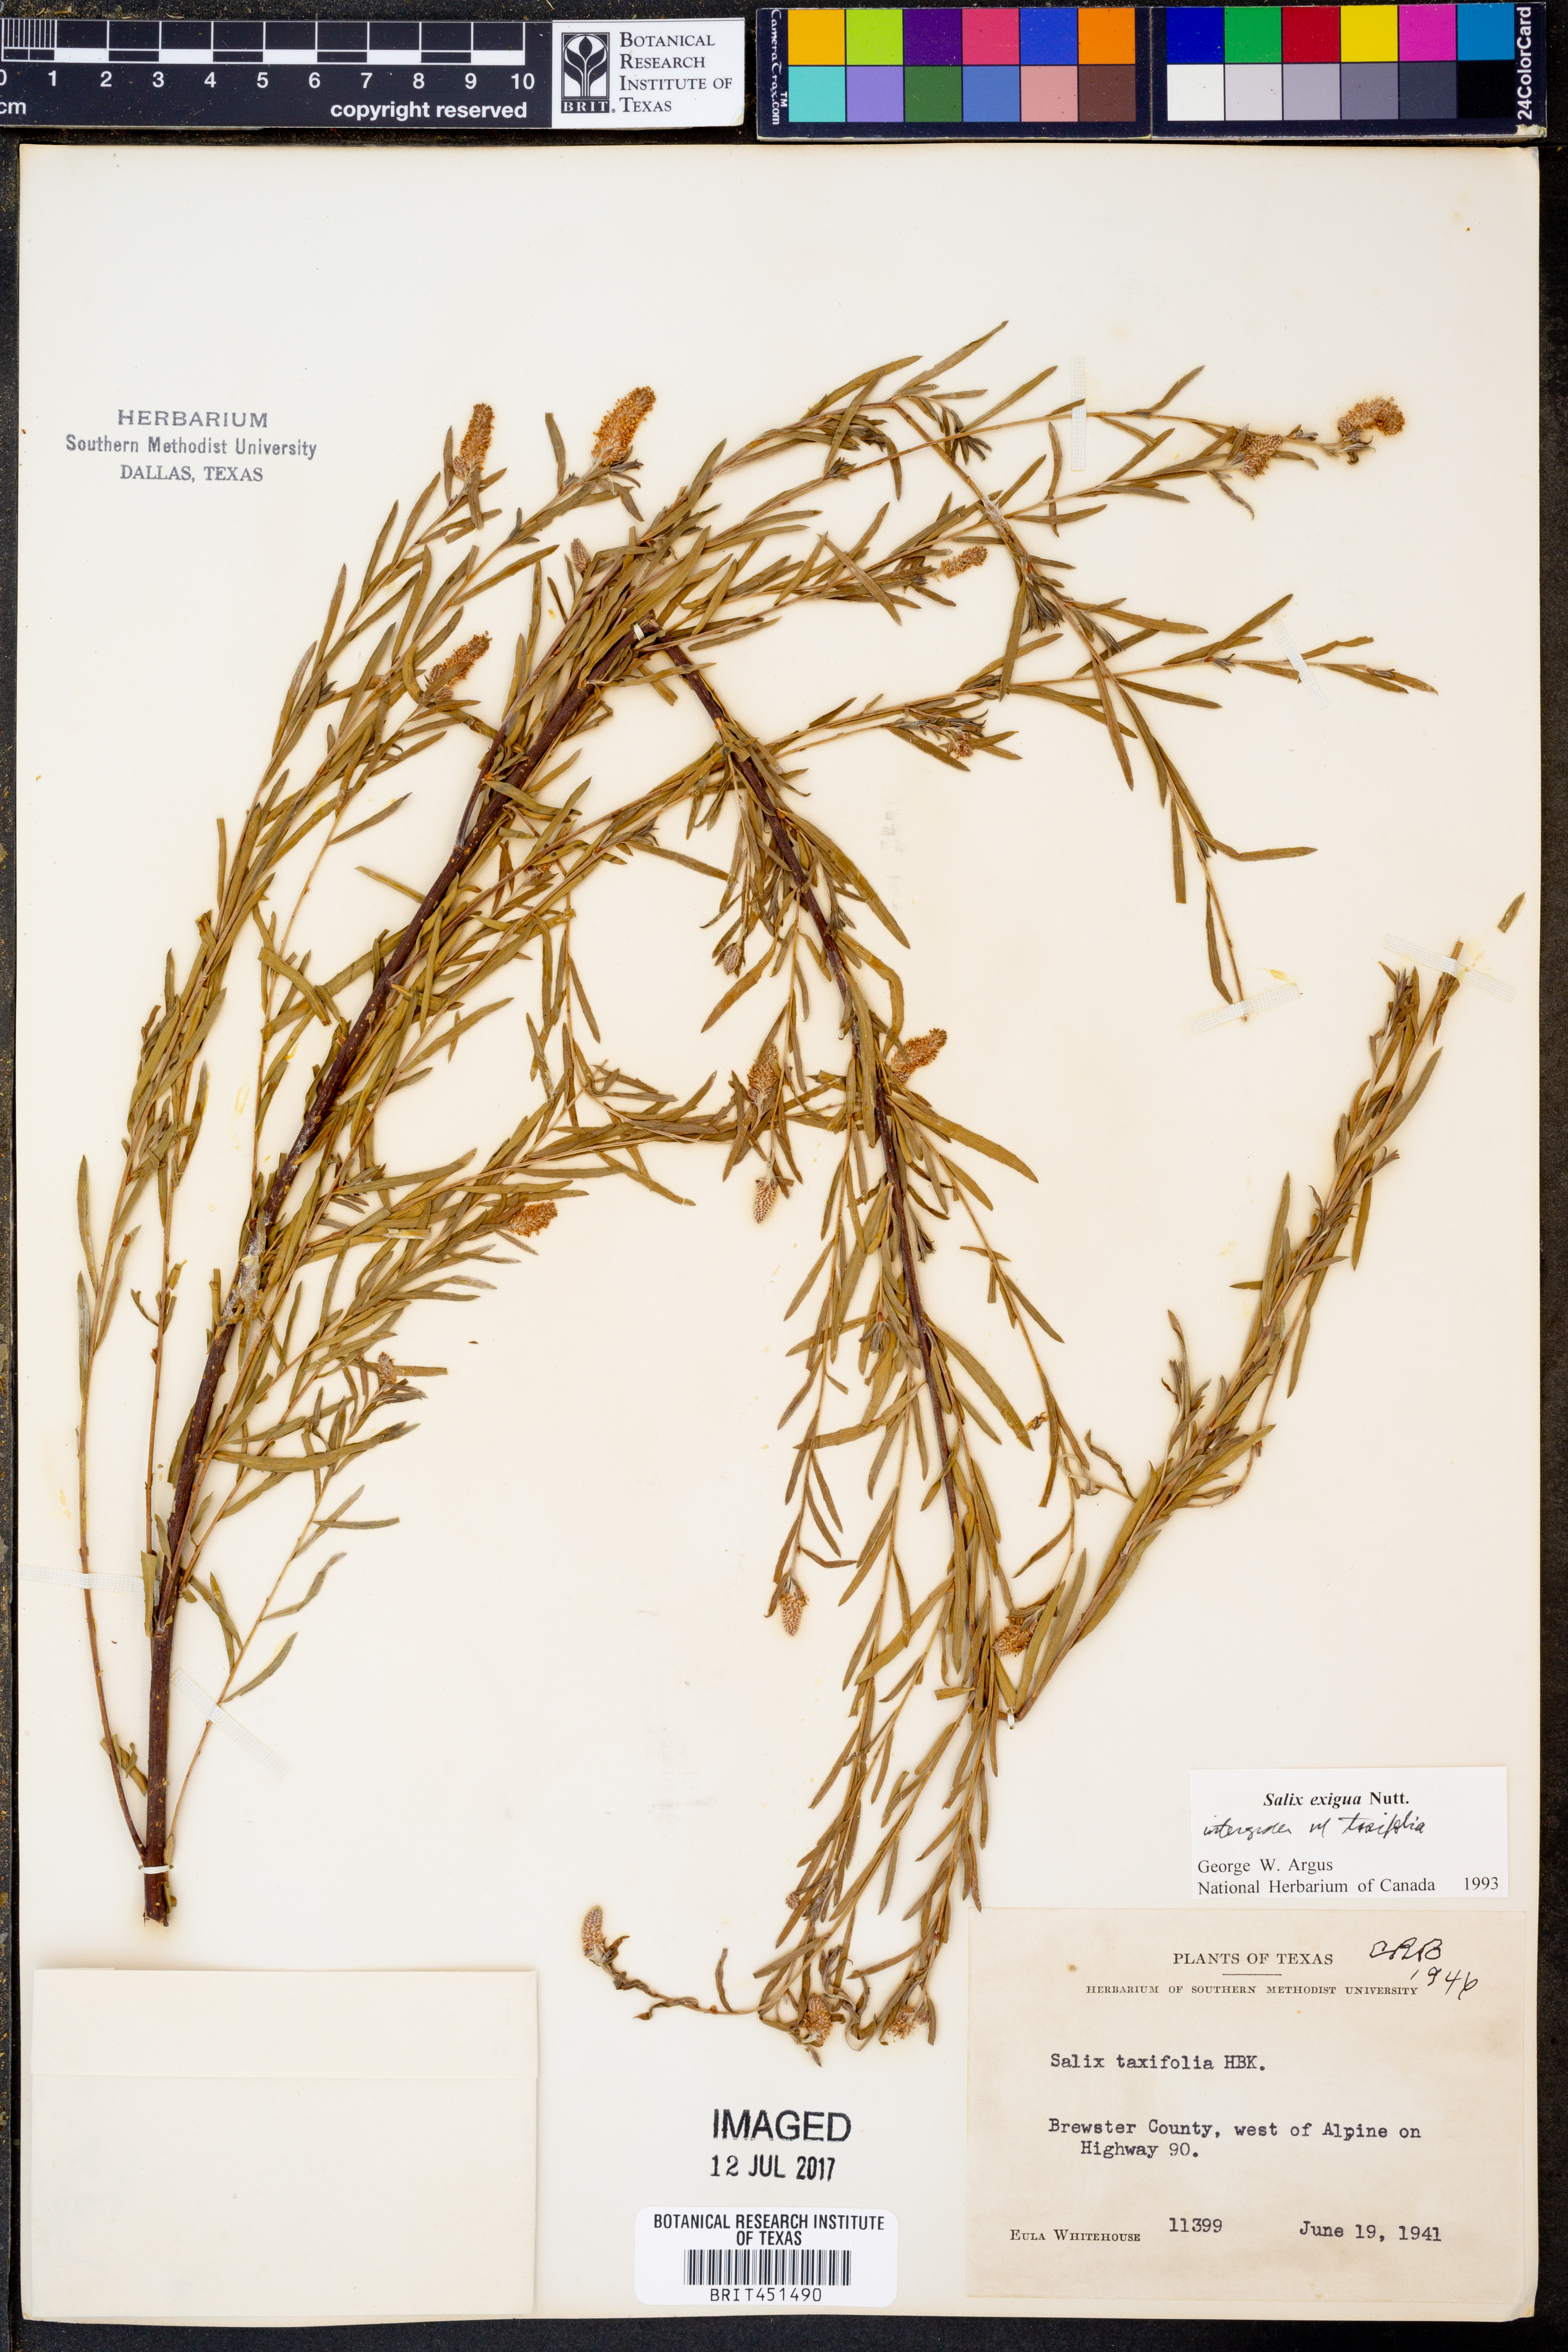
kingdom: Plantae
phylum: Tracheophyta
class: Magnoliopsida
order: Malpighiales
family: Salicaceae
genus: Salix
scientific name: Salix exigua
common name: Coyote willow
